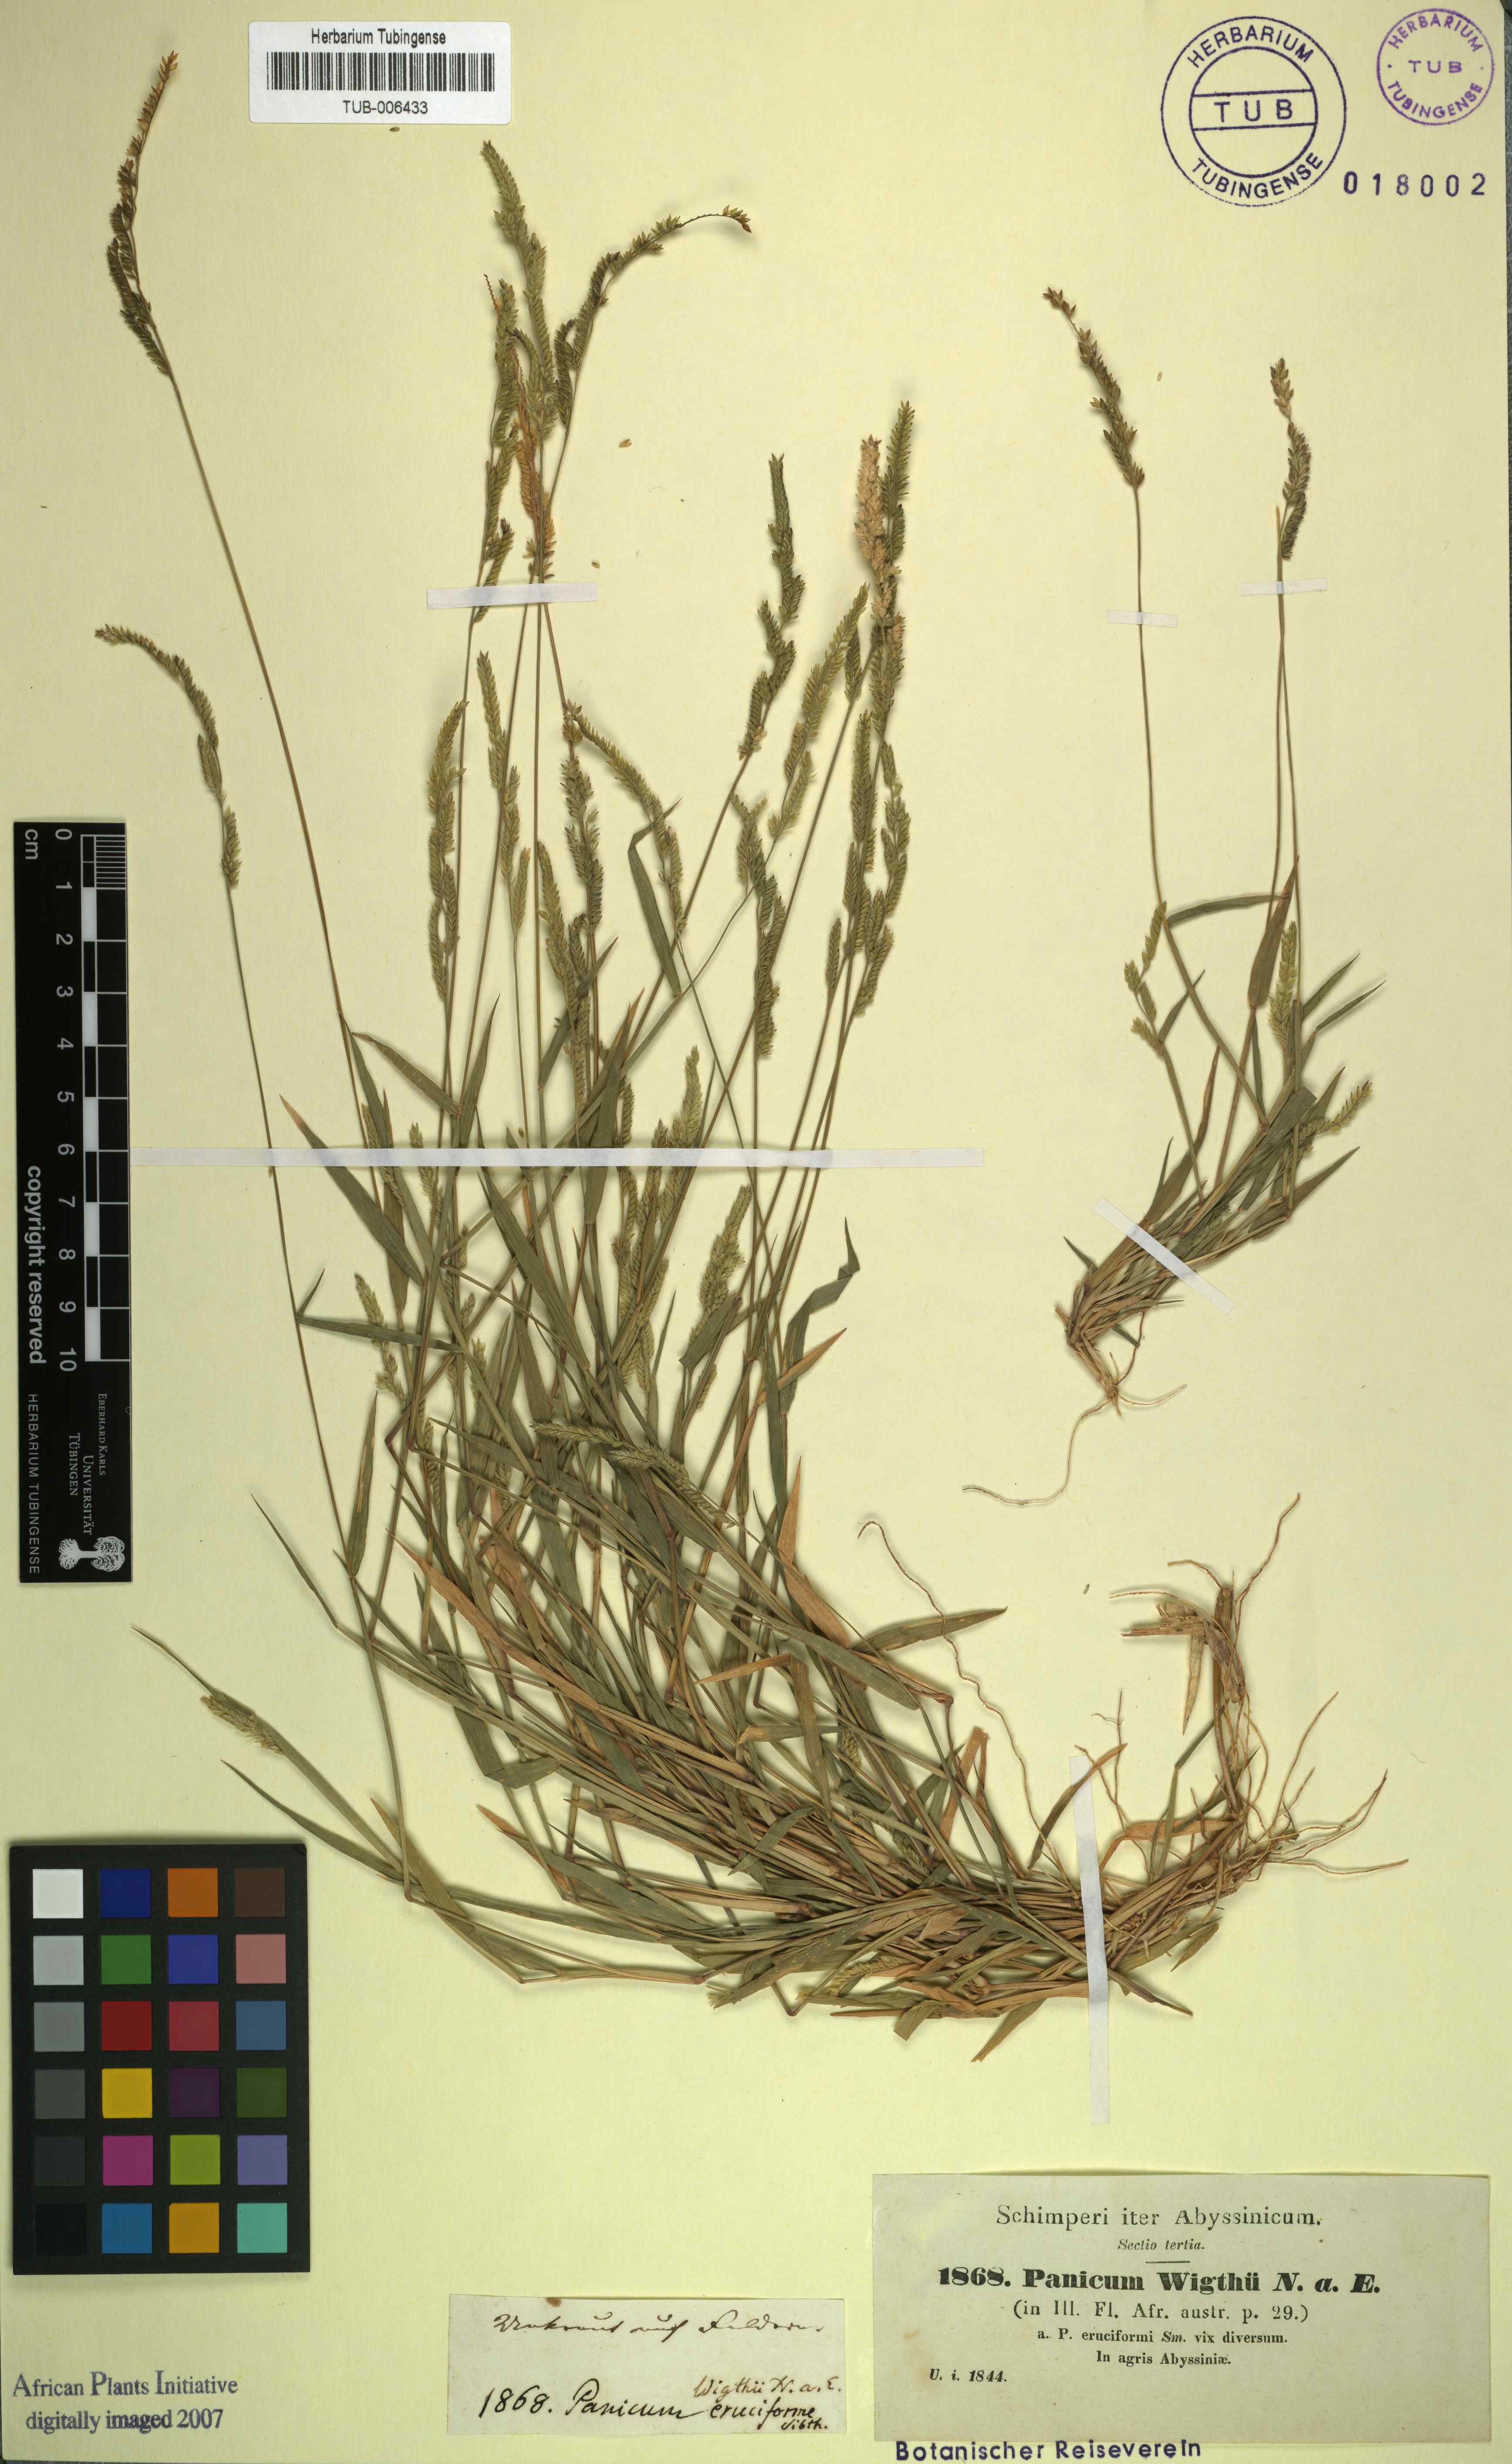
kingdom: Plantae
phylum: Tracheophyta
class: Liliopsida
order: Poales
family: Poaceae
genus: Moorochloa
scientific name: Moorochloa eruciformis
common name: Sweet signalgrass
